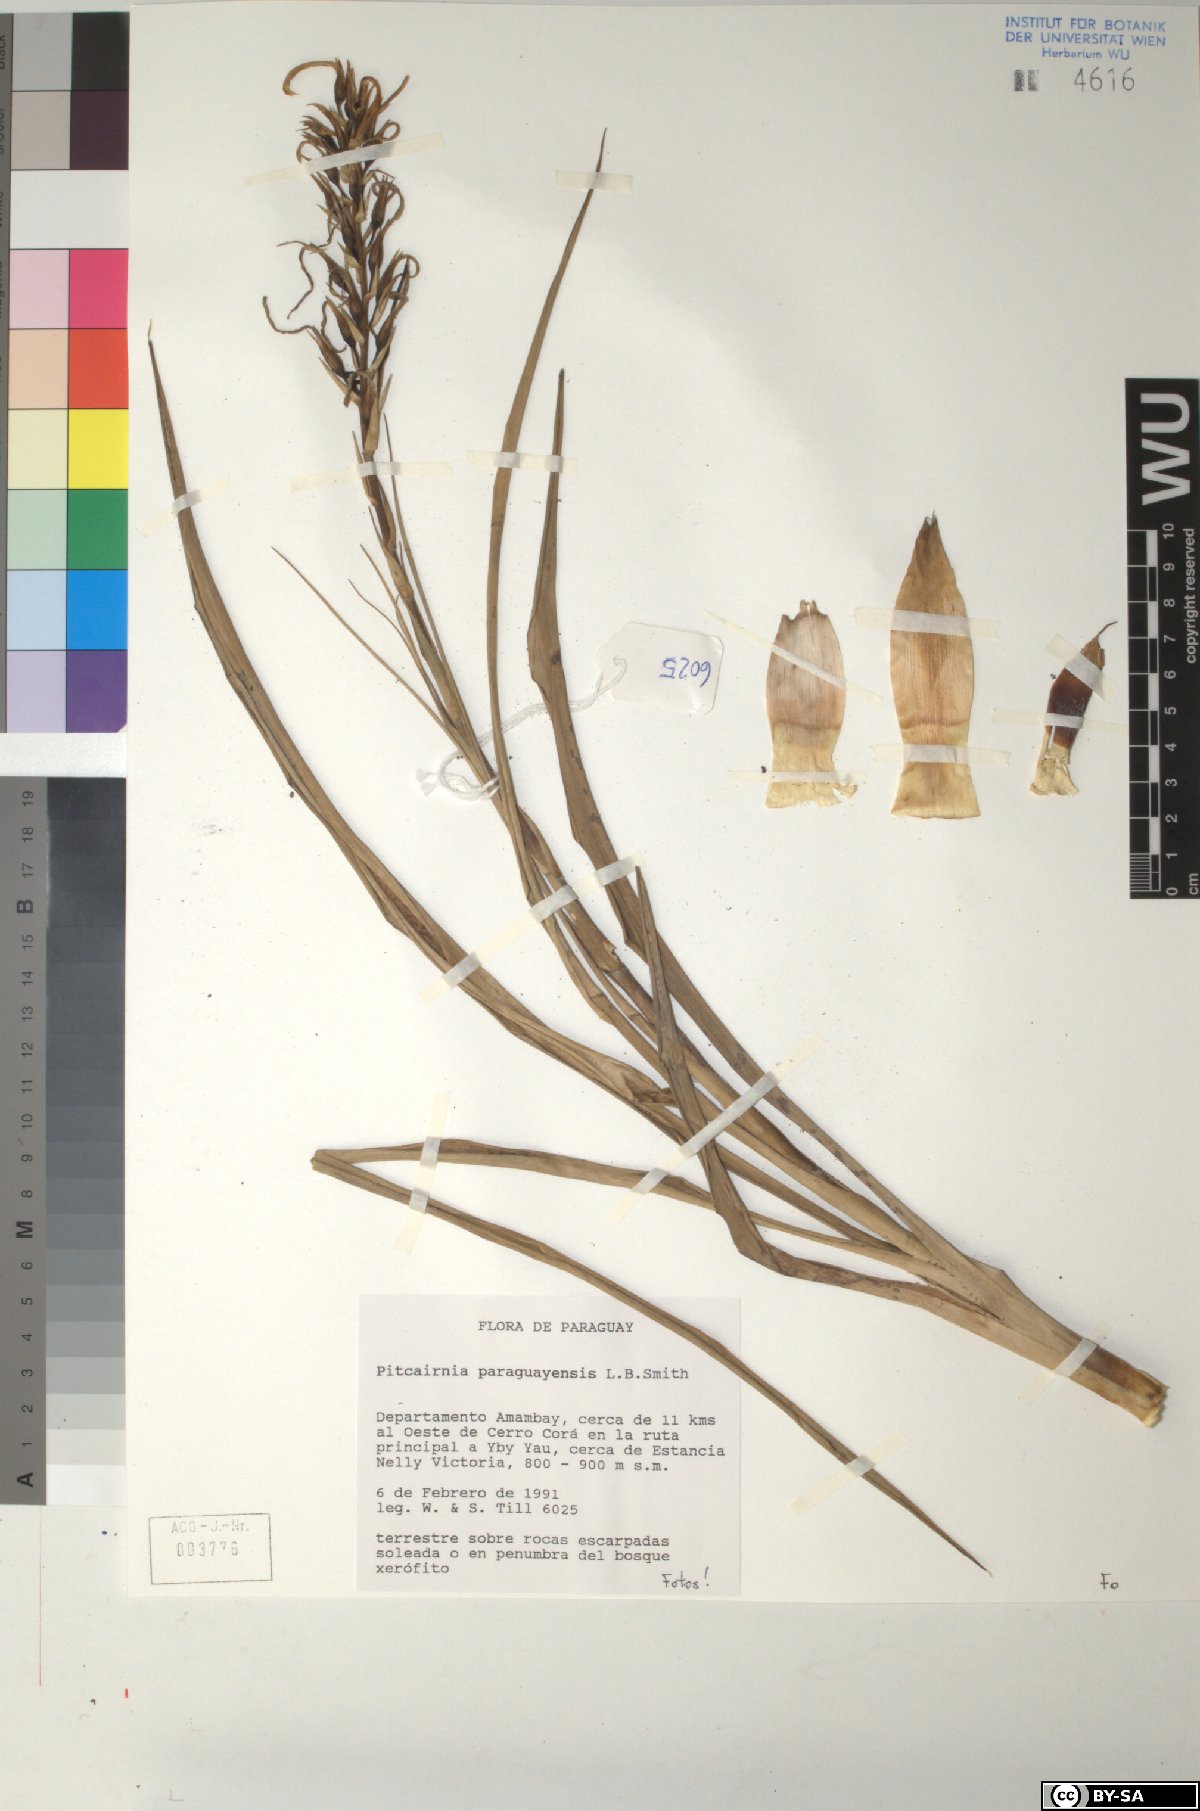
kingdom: Plantae
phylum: Tracheophyta
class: Liliopsida
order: Poales
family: Bromeliaceae
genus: Pitcairnia
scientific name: Pitcairnia paraguayensis
